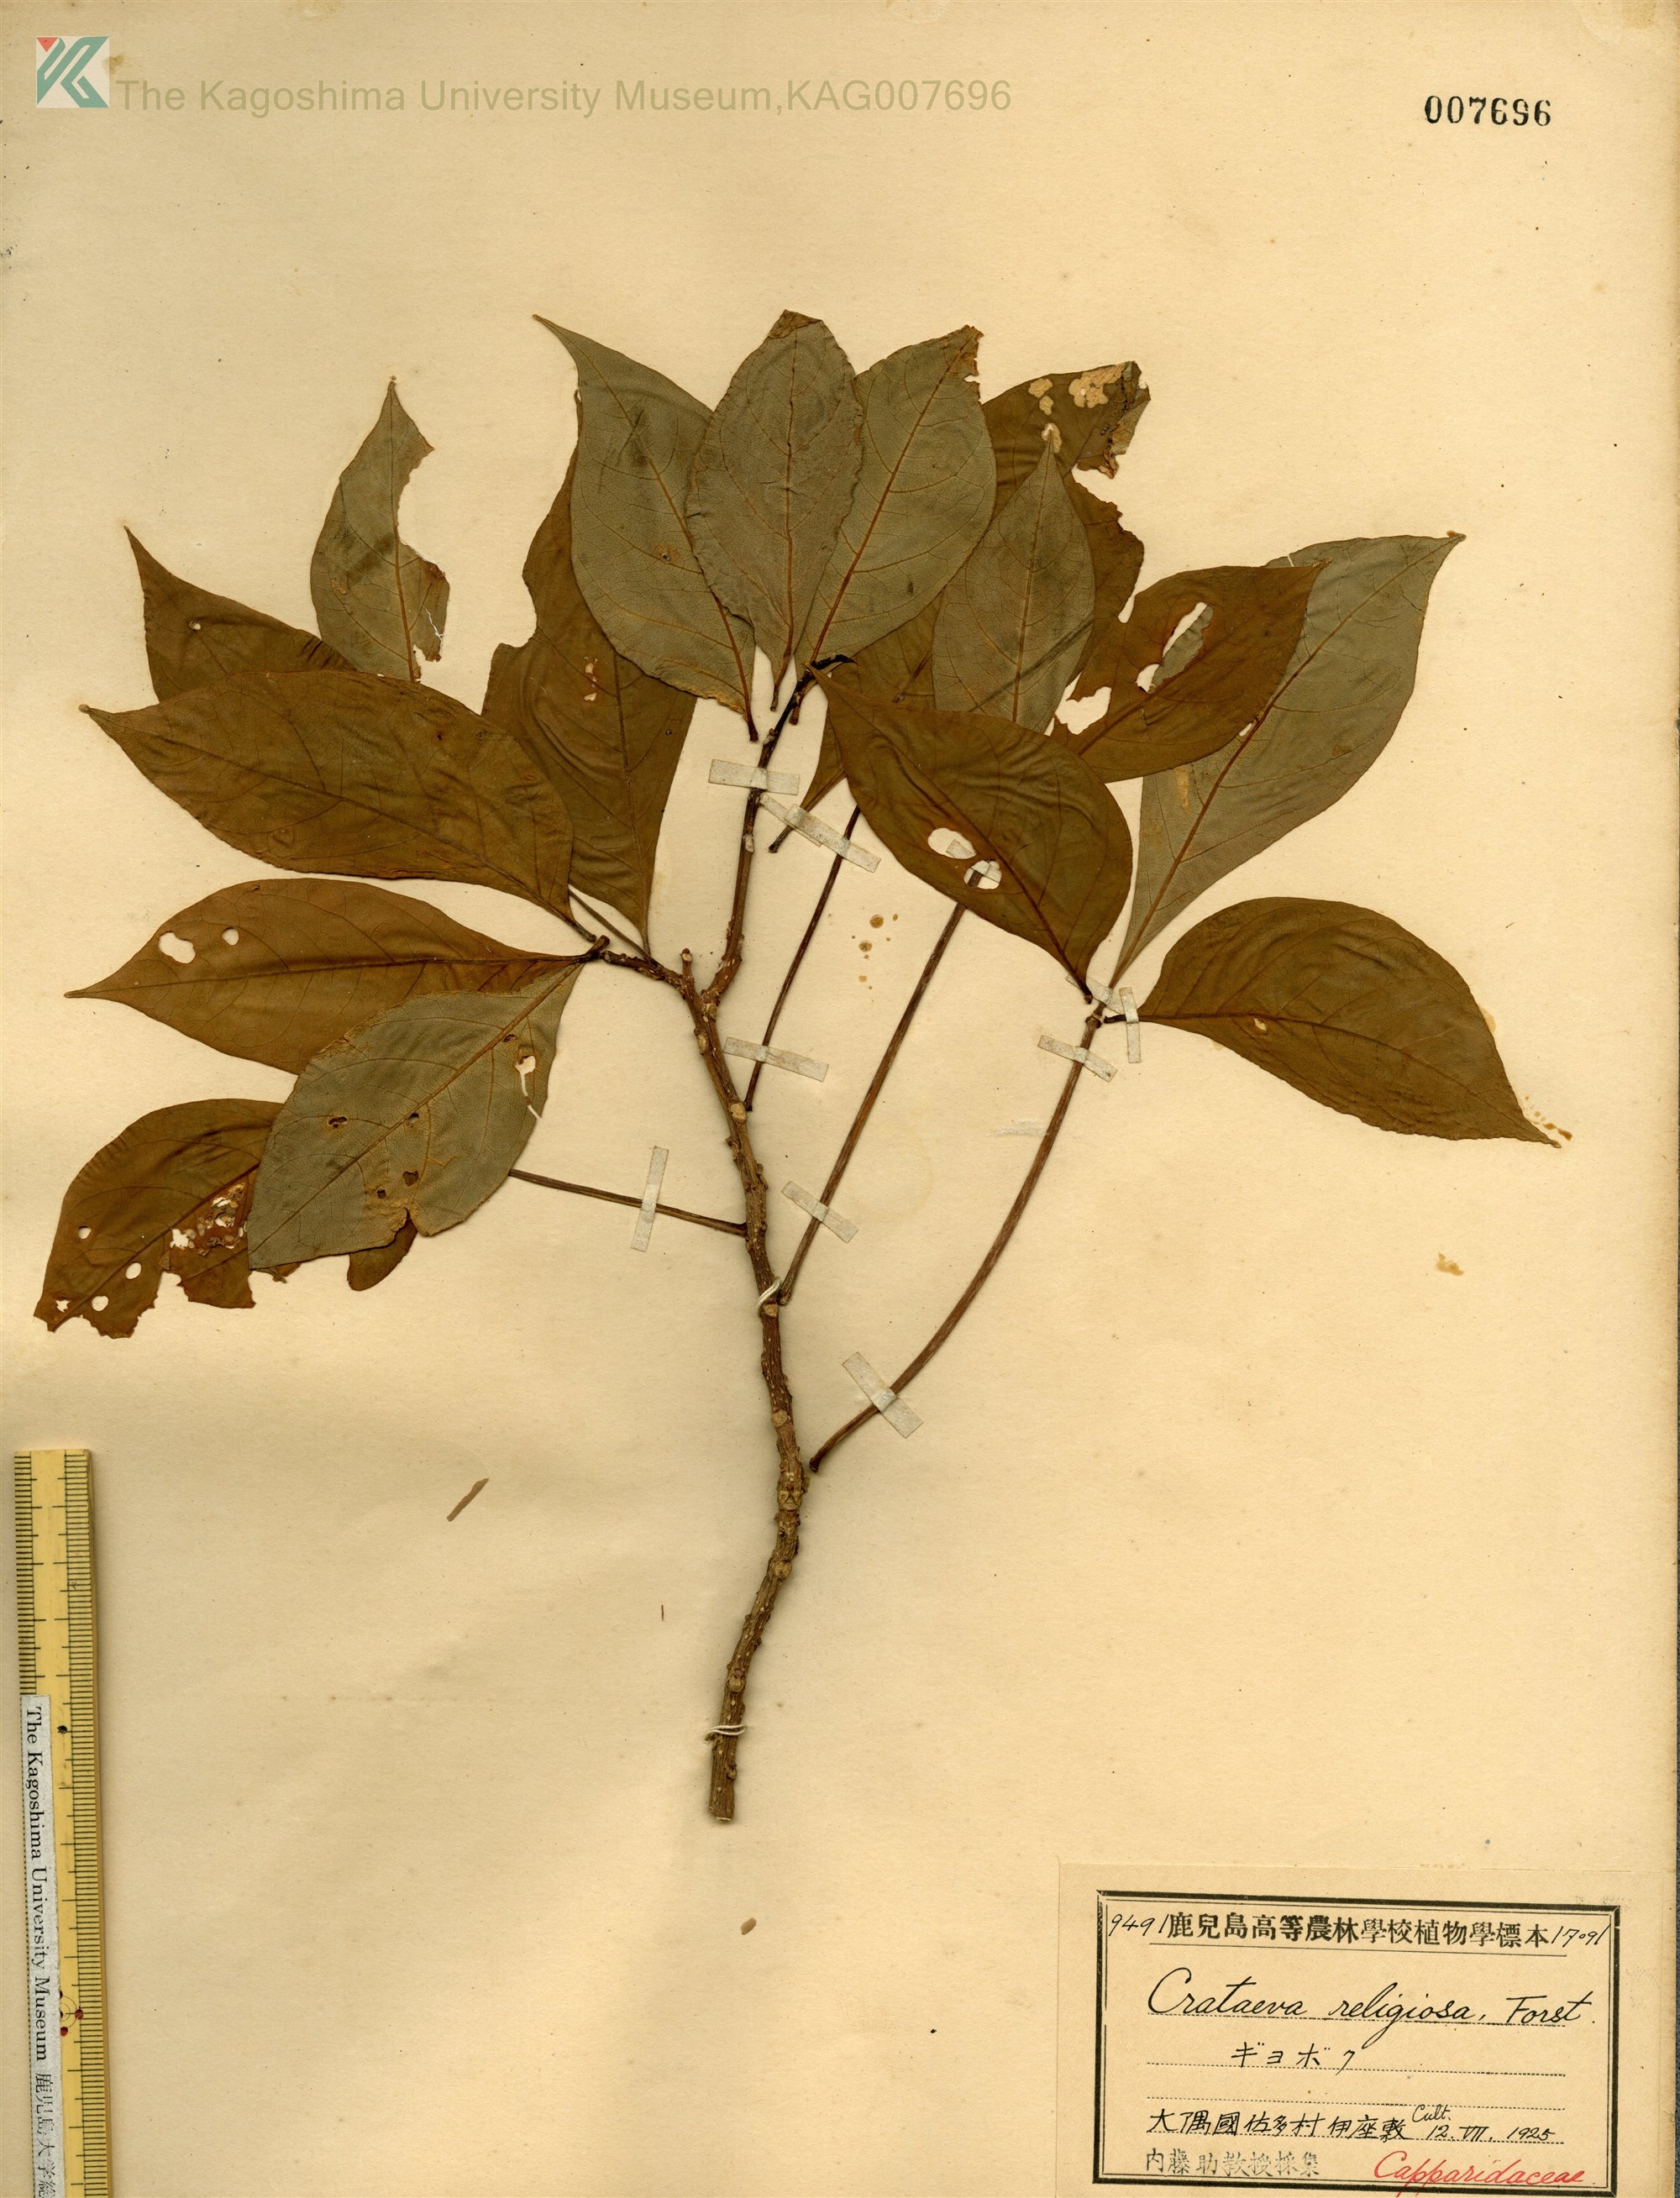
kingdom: Plantae
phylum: Tracheophyta
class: Magnoliopsida
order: Brassicales
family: Capparaceae
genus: Crateva
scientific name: Crateva formosensis
